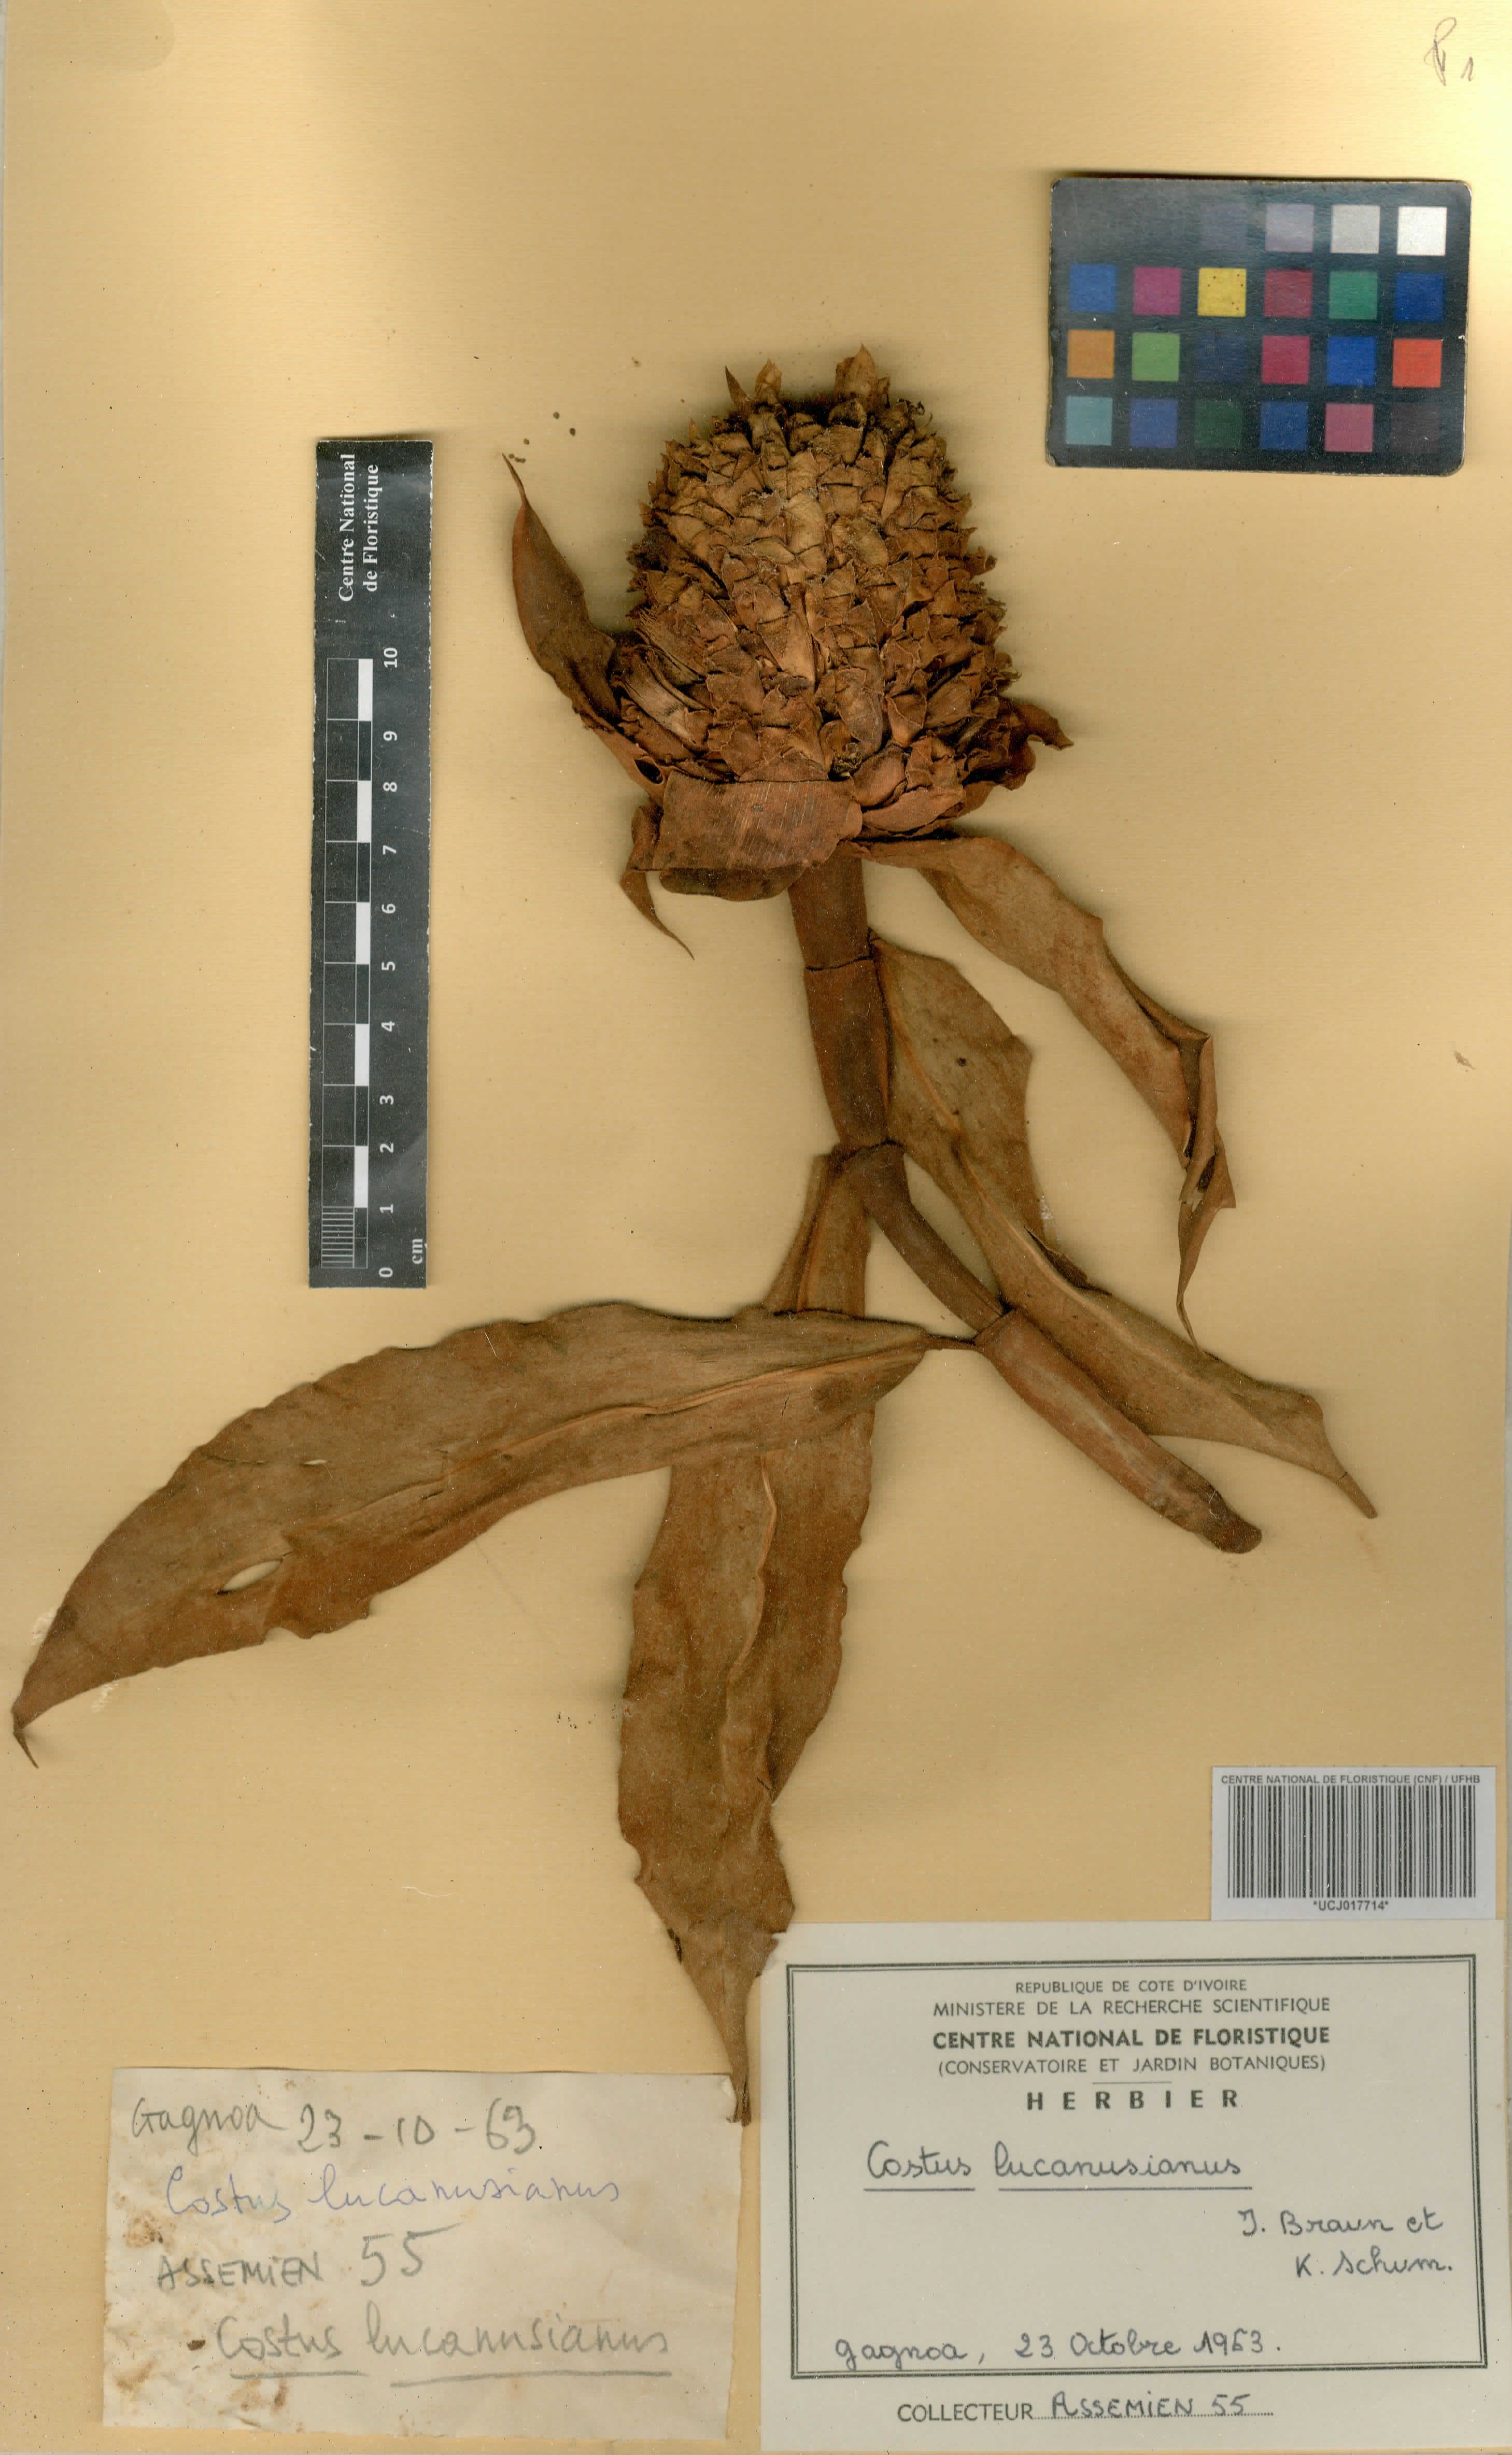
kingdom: Plantae
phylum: Tracheophyta
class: Liliopsida
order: Zingiberales
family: Costaceae
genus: Costus
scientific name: Costus lucanusianus
